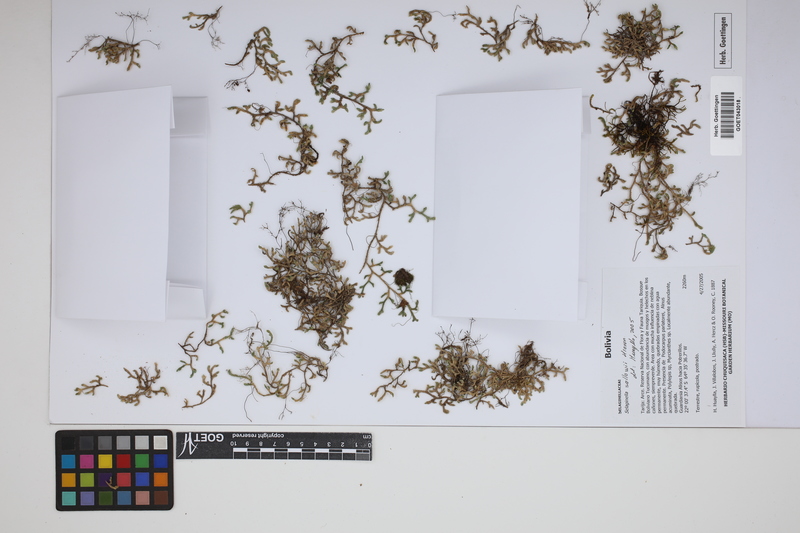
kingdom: Plantae
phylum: Tracheophyta
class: Lycopodiopsida
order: Selaginellales
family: Selaginellaceae
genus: Selaginella
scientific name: Selaginella sellowii
